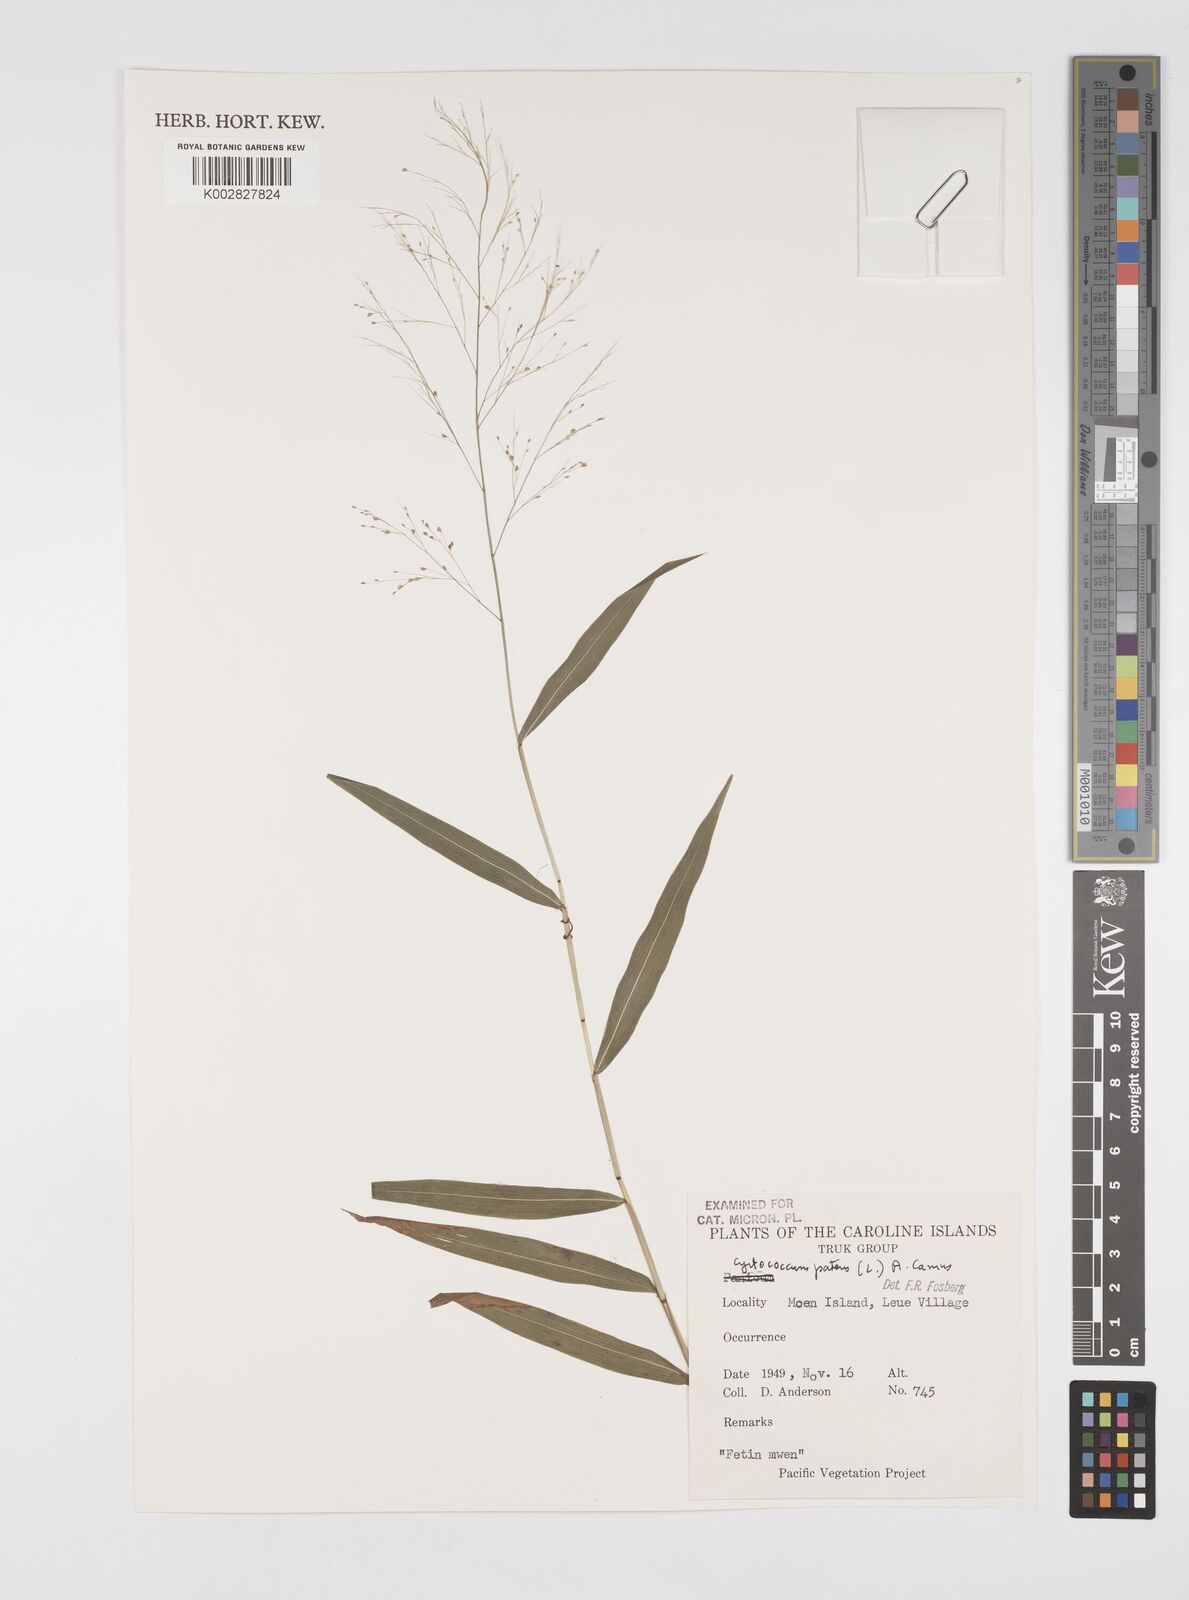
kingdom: Plantae
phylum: Tracheophyta
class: Liliopsida
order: Poales
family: Poaceae
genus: Cyrtococcum
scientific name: Cyrtococcum patens
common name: Broad-leaved bowgrass
